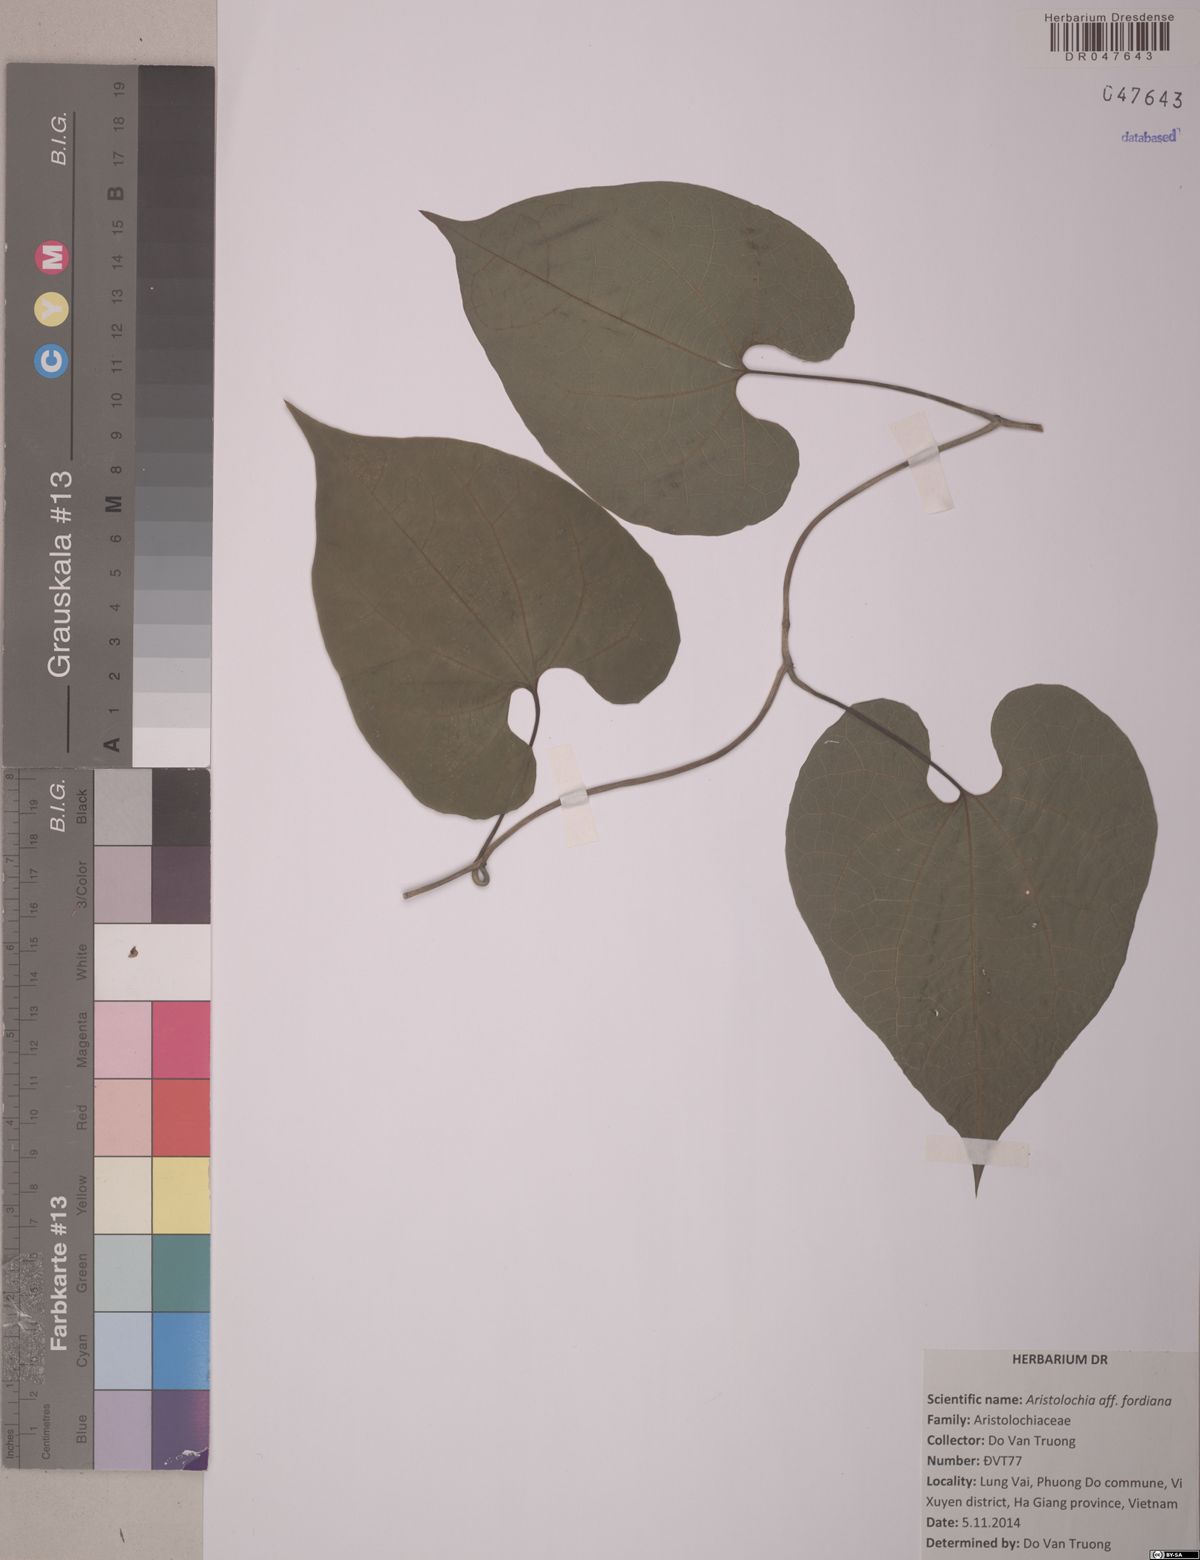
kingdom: Plantae
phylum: Tracheophyta
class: Magnoliopsida
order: Piperales
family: Aristolochiaceae
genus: Aristolochia
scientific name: Aristolochia chlamydophylla
